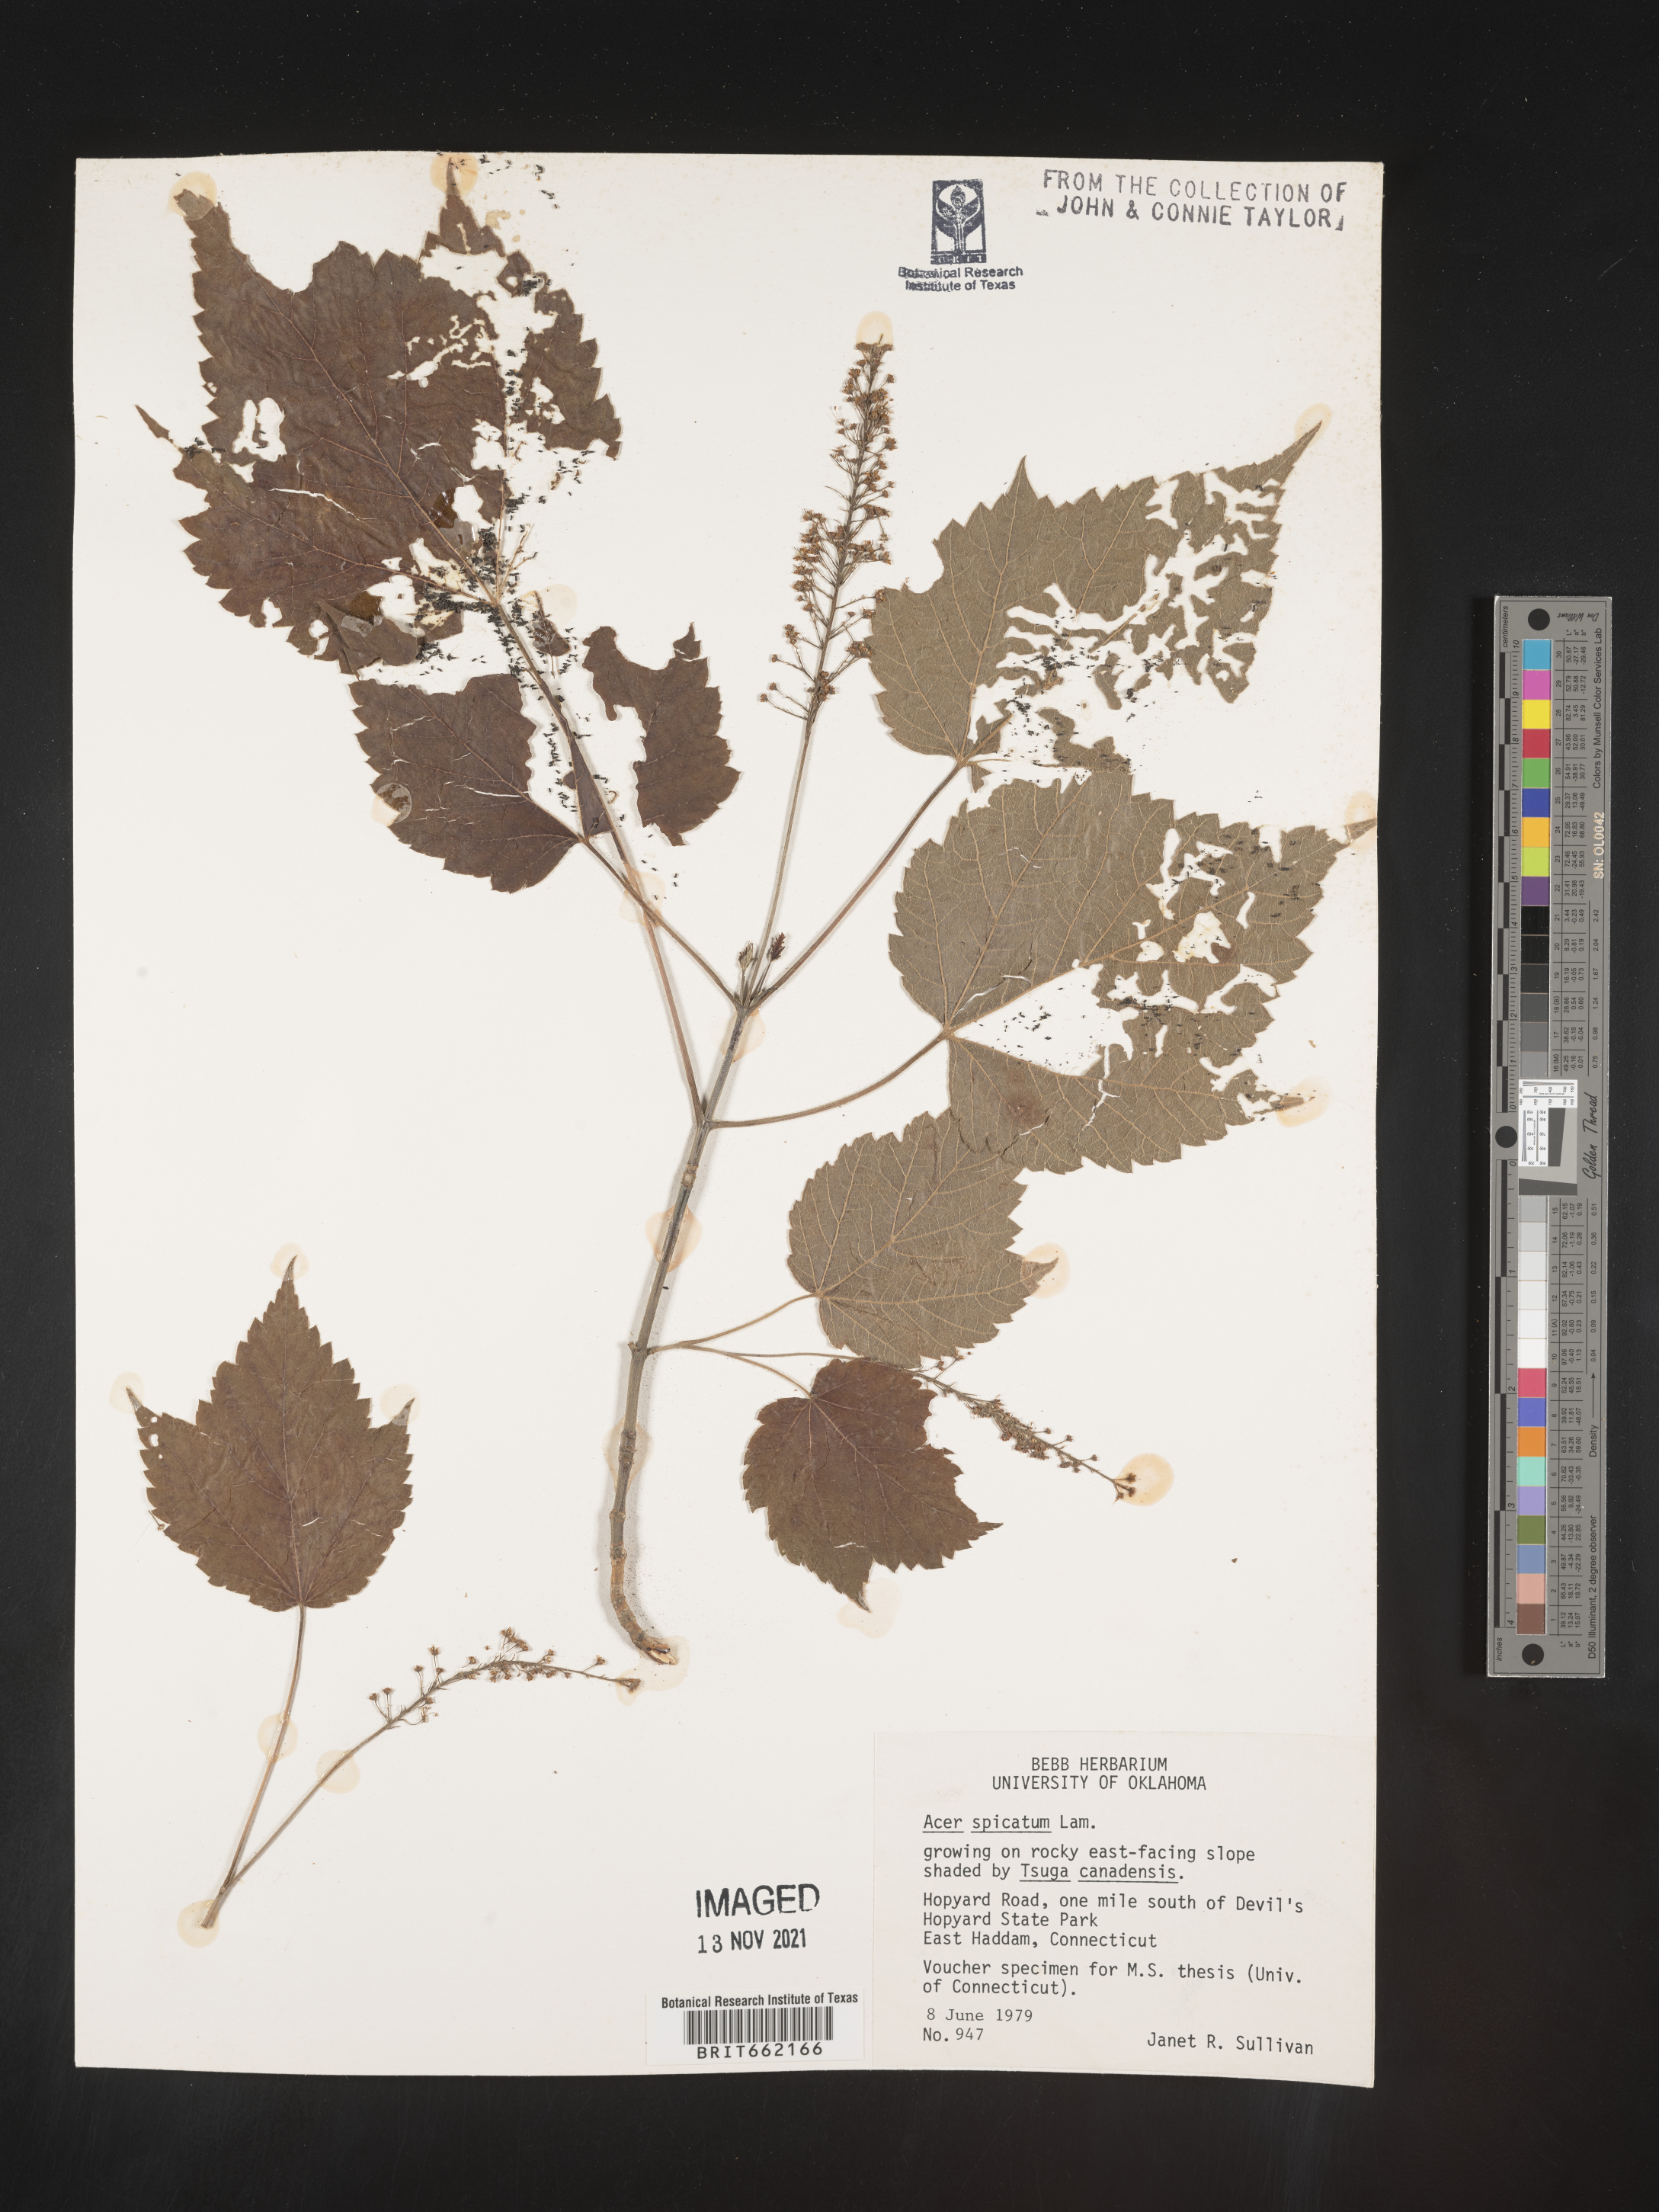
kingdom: Plantae
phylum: Tracheophyta
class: Magnoliopsida
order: Sapindales
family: Sapindaceae
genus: Acer
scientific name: Acer spicatum
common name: Mountain maple
